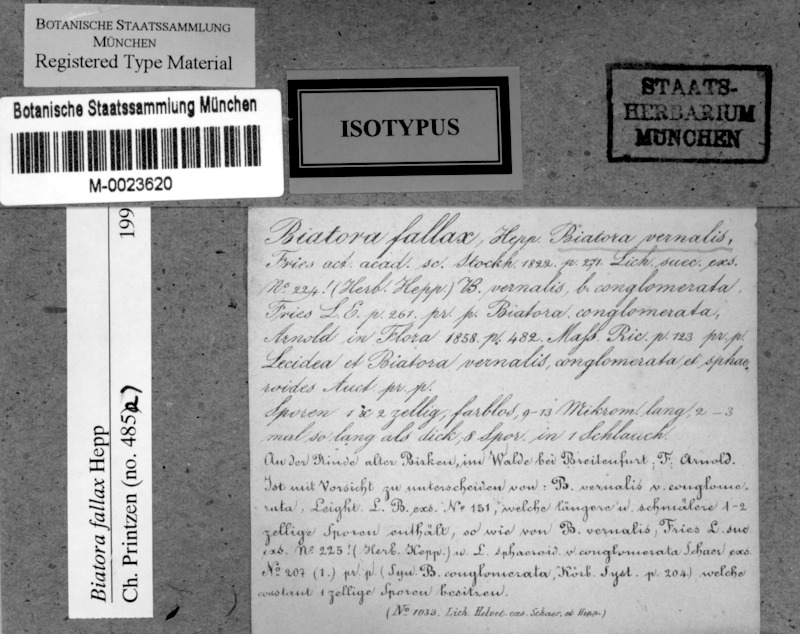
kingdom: Fungi
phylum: Ascomycota
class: Lecanoromycetes
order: Lecanorales
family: Ramalinaceae
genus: Biatora
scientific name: Biatora fallax
